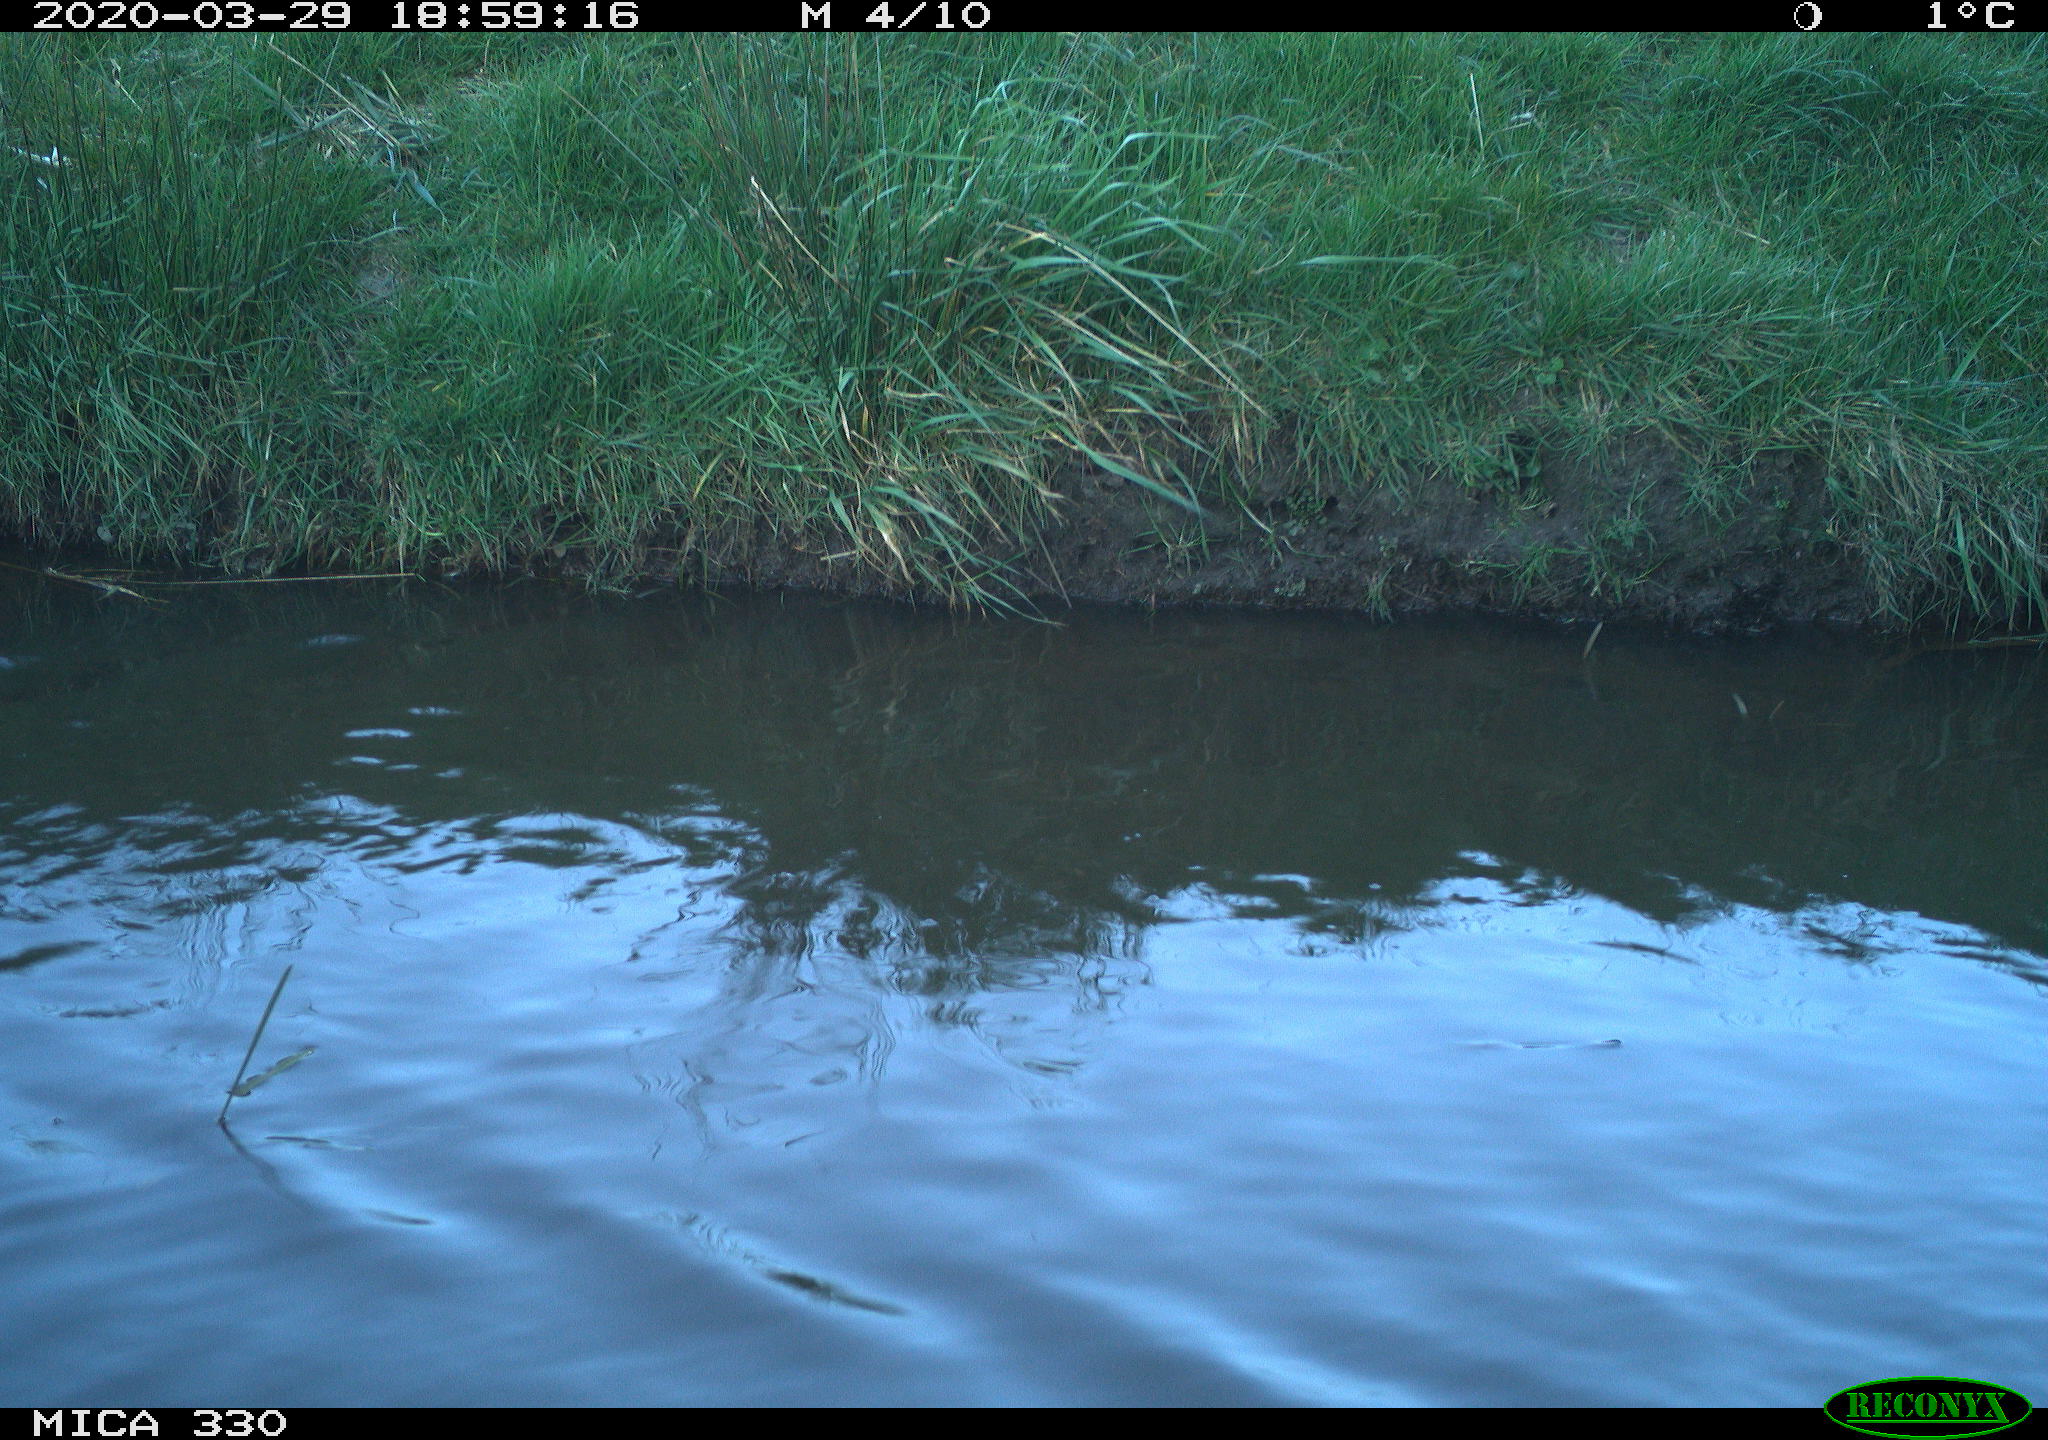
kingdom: Animalia
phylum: Chordata
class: Aves
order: Anseriformes
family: Anatidae
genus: Anas
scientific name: Anas platyrhynchos
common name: Mallard
